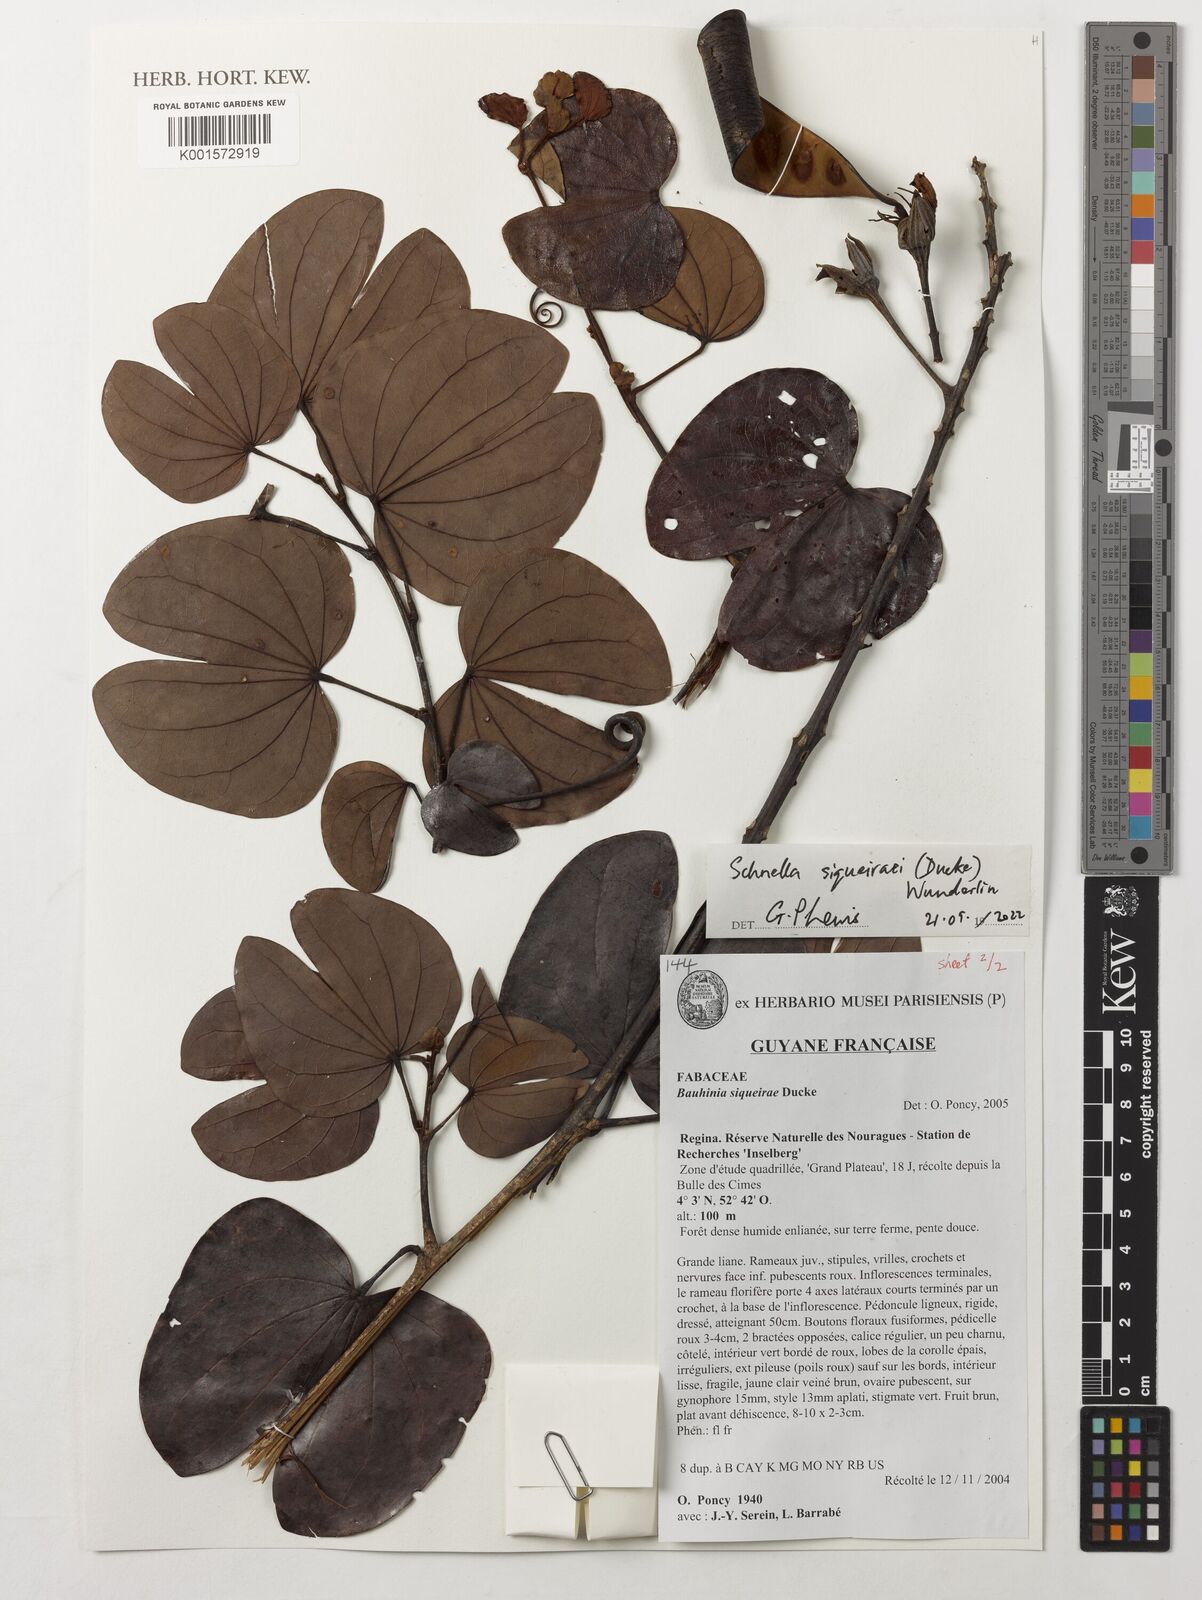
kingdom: Plantae
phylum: Tracheophyta
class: Magnoliopsida
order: Fabales
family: Fabaceae
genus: Schnella
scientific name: Schnella siqueirae
